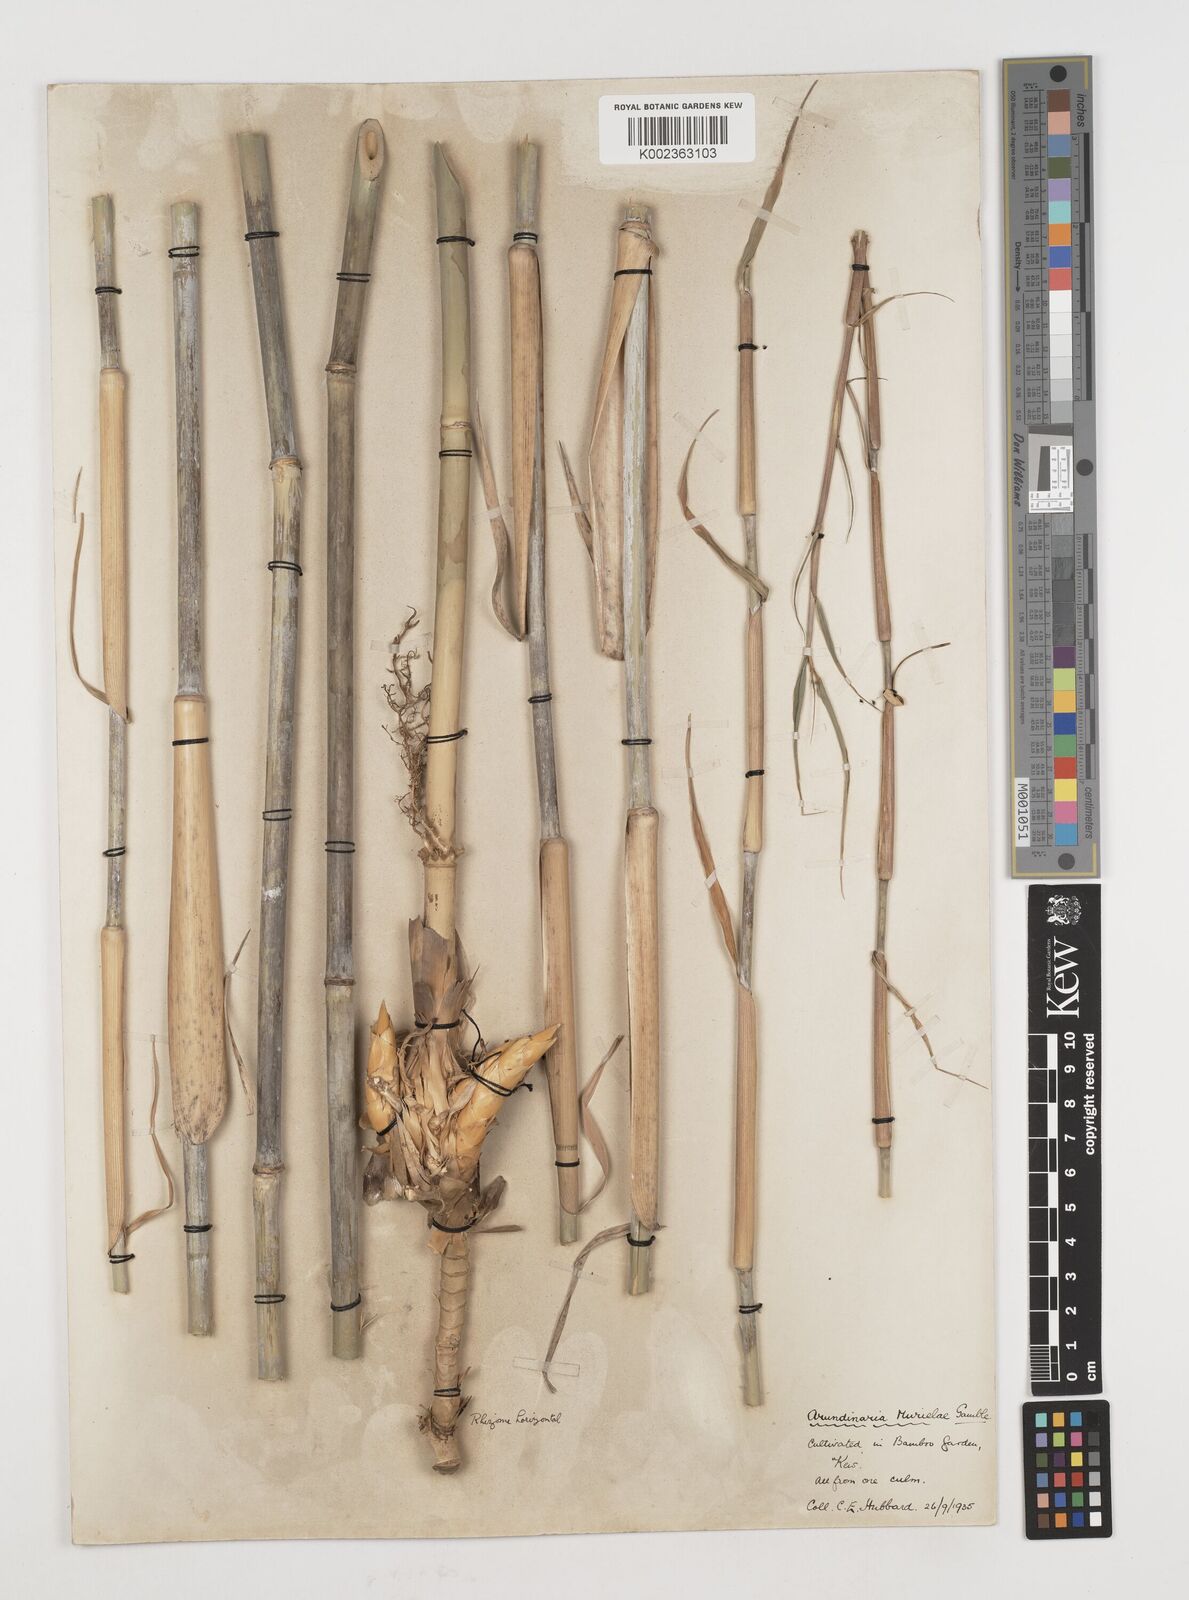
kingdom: Plantae
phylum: Tracheophyta
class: Liliopsida
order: Poales
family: Poaceae
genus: Fargesia
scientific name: Fargesia murielae
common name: Umbrella bamboo
